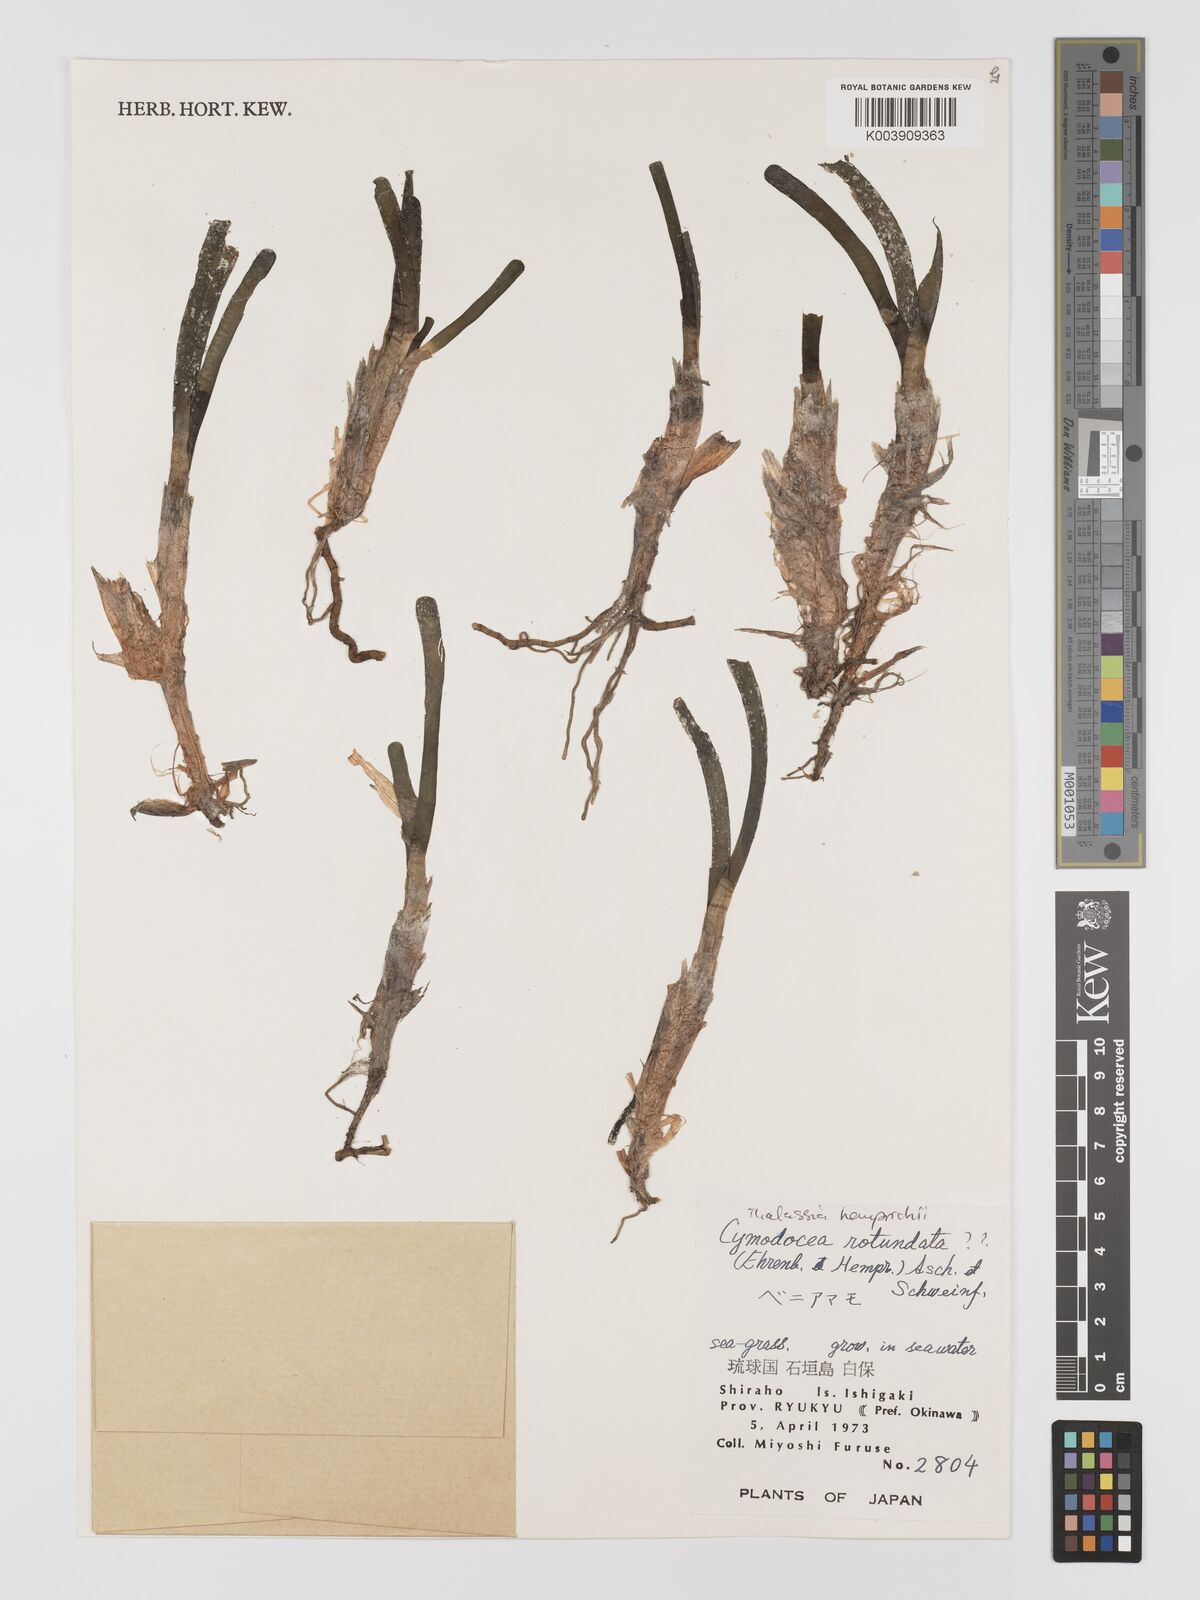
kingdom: Plantae
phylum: Tracheophyta
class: Liliopsida
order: Alismatales
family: Cymodoceaceae
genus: Cymodocea
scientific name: Cymodocea rotundata
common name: Species code: cr
